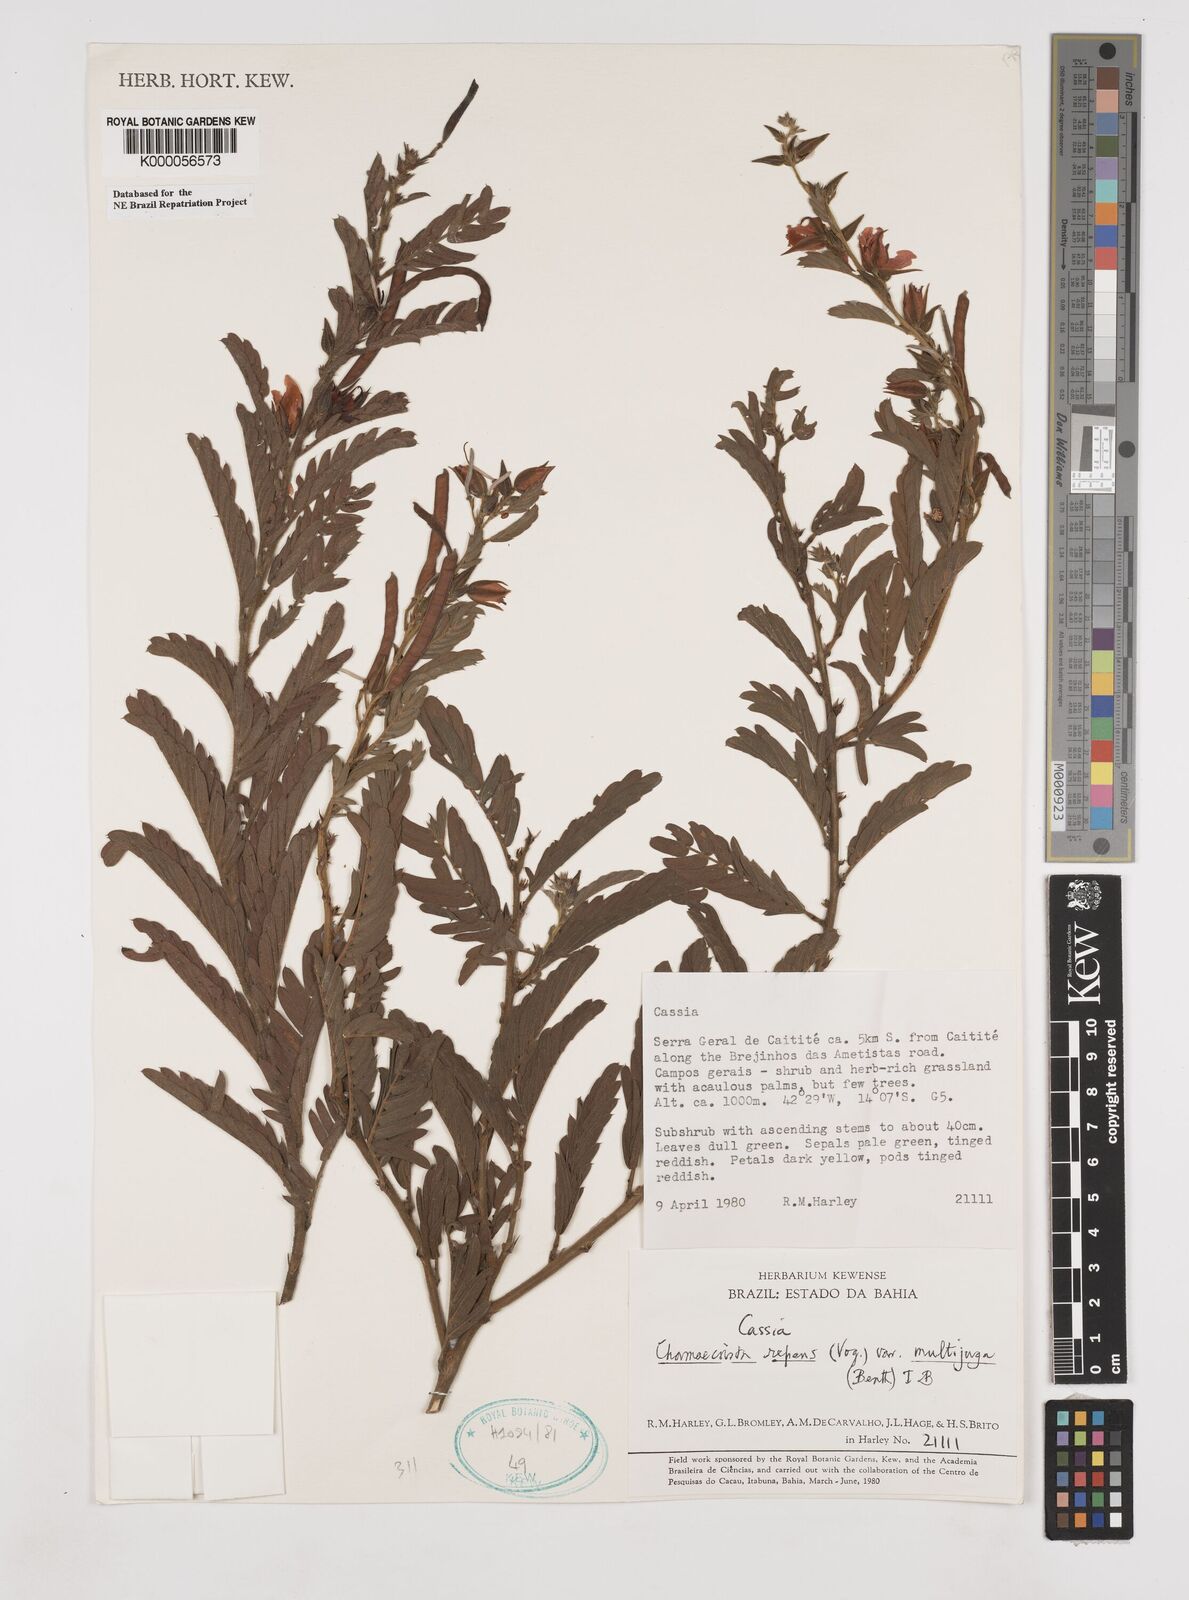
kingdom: Plantae
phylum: Tracheophyta
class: Magnoliopsida
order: Fabales
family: Fabaceae
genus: Chamaecrista
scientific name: Chamaecrista repens
